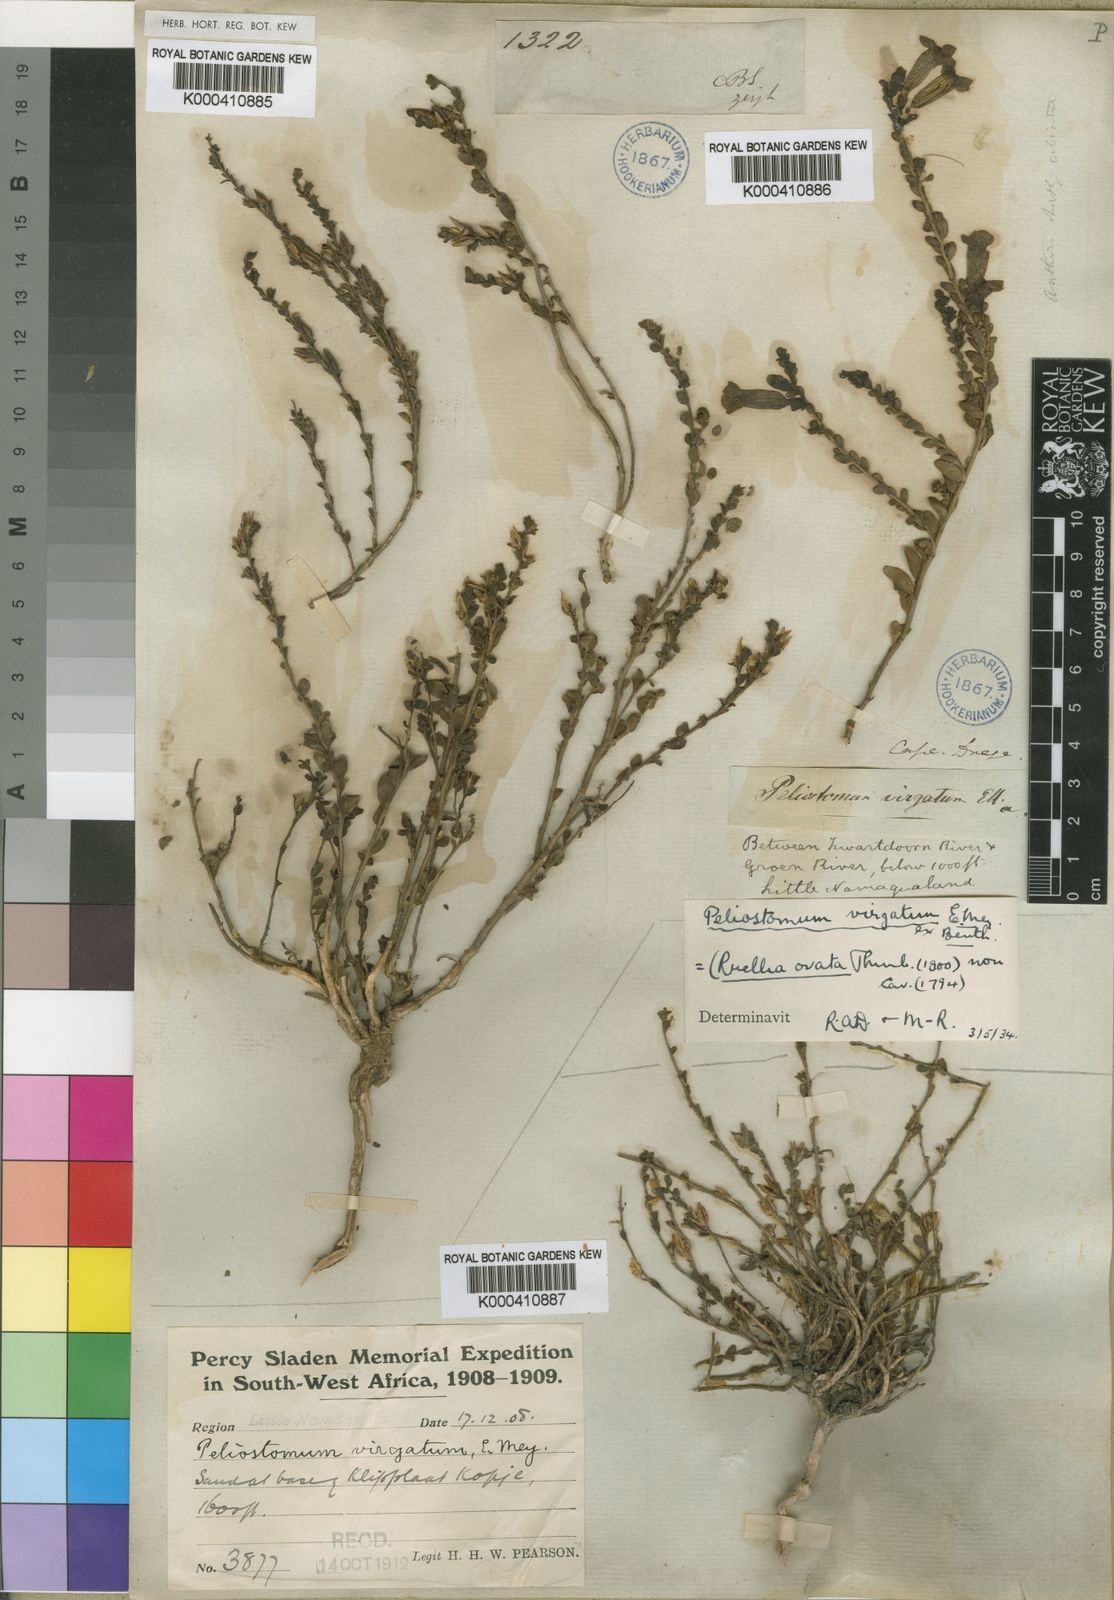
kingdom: Plantae
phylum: Tracheophyta
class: Magnoliopsida
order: Lamiales
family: Scrophulariaceae
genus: Peliostomum
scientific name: Peliostomum virgatum
